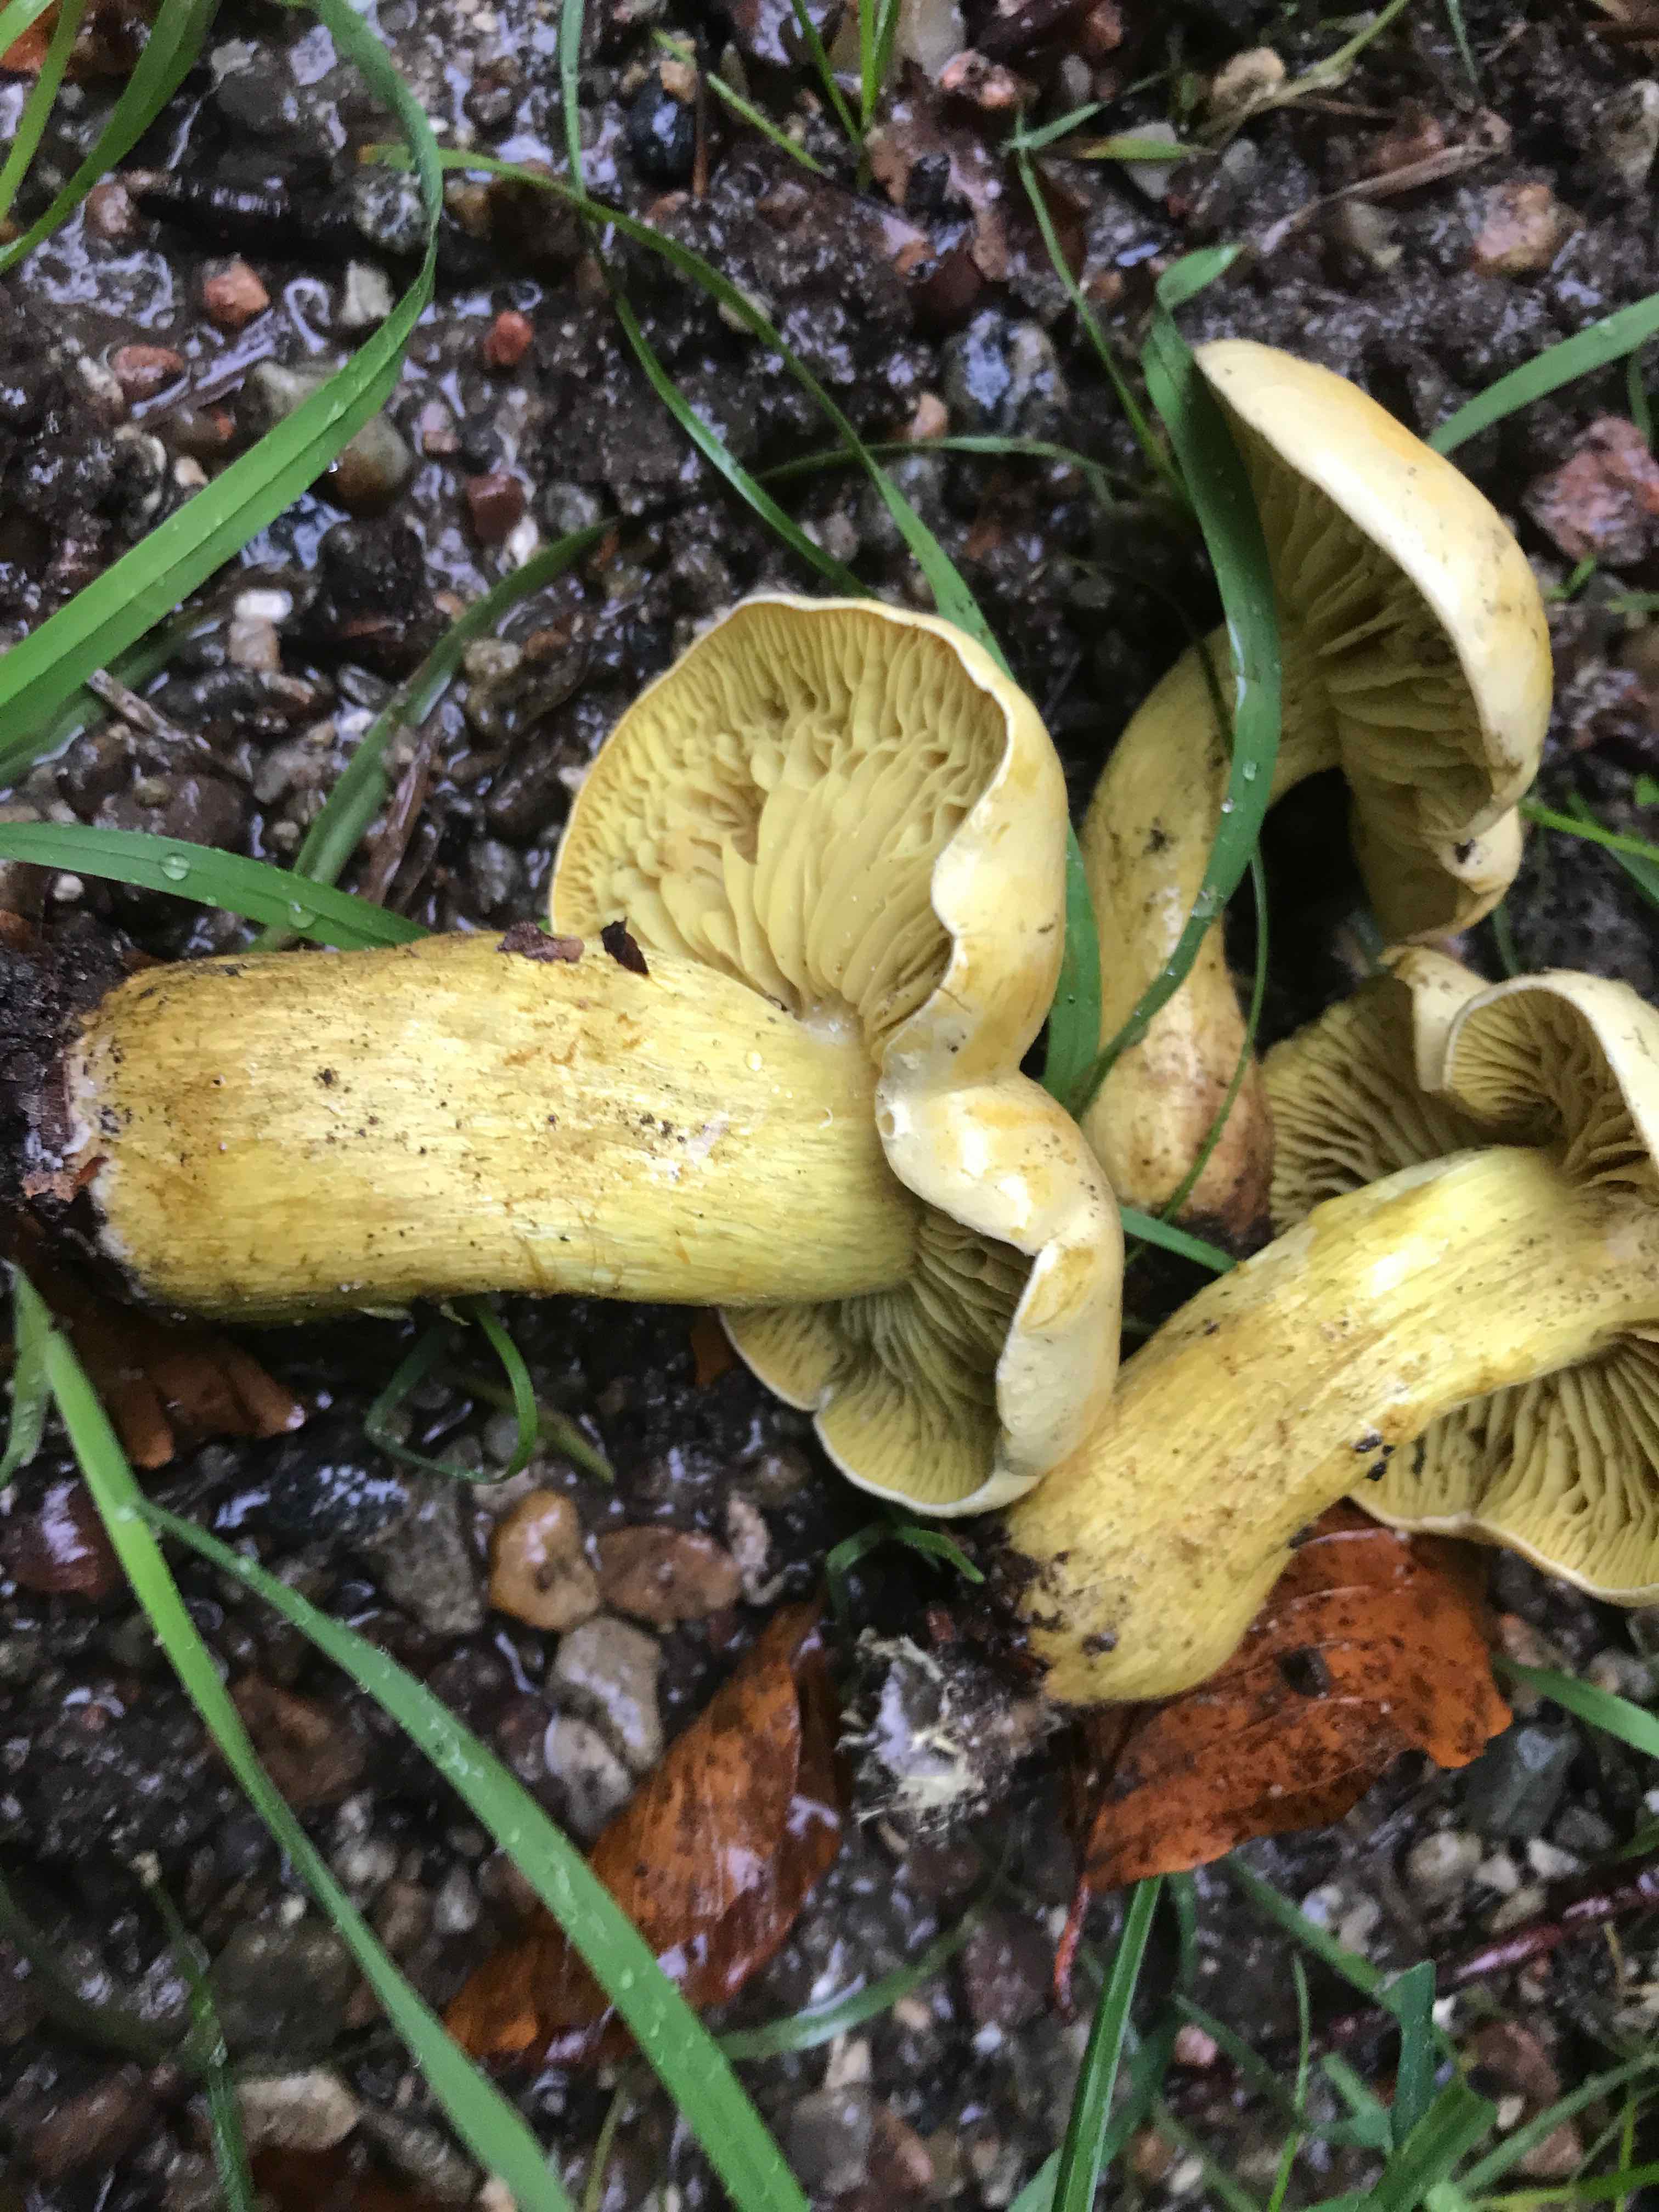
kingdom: Fungi
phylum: Basidiomycota
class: Agaricomycetes
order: Agaricales
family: Tricholomataceae
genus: Tricholoma
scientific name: Tricholoma sulphureum
